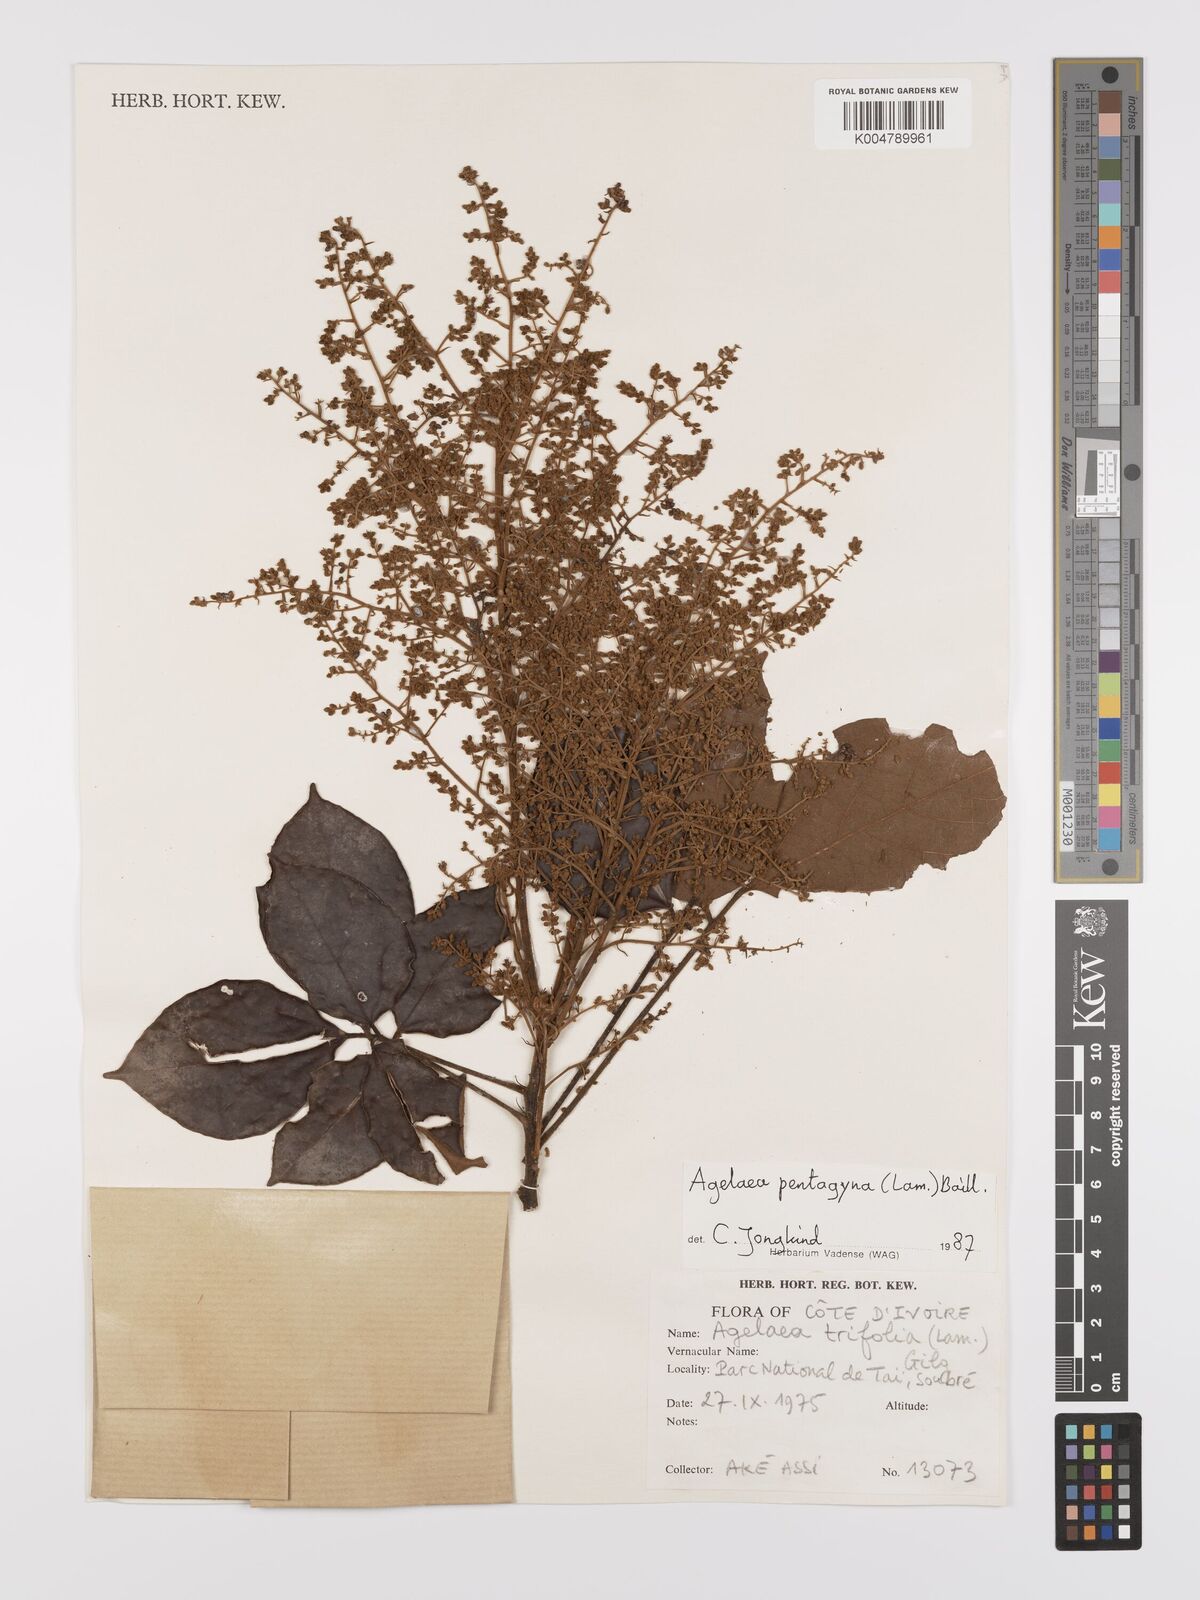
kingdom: Plantae
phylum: Tracheophyta
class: Magnoliopsida
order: Oxalidales
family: Connaraceae
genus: Agelaea
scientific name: Agelaea pentagyna
